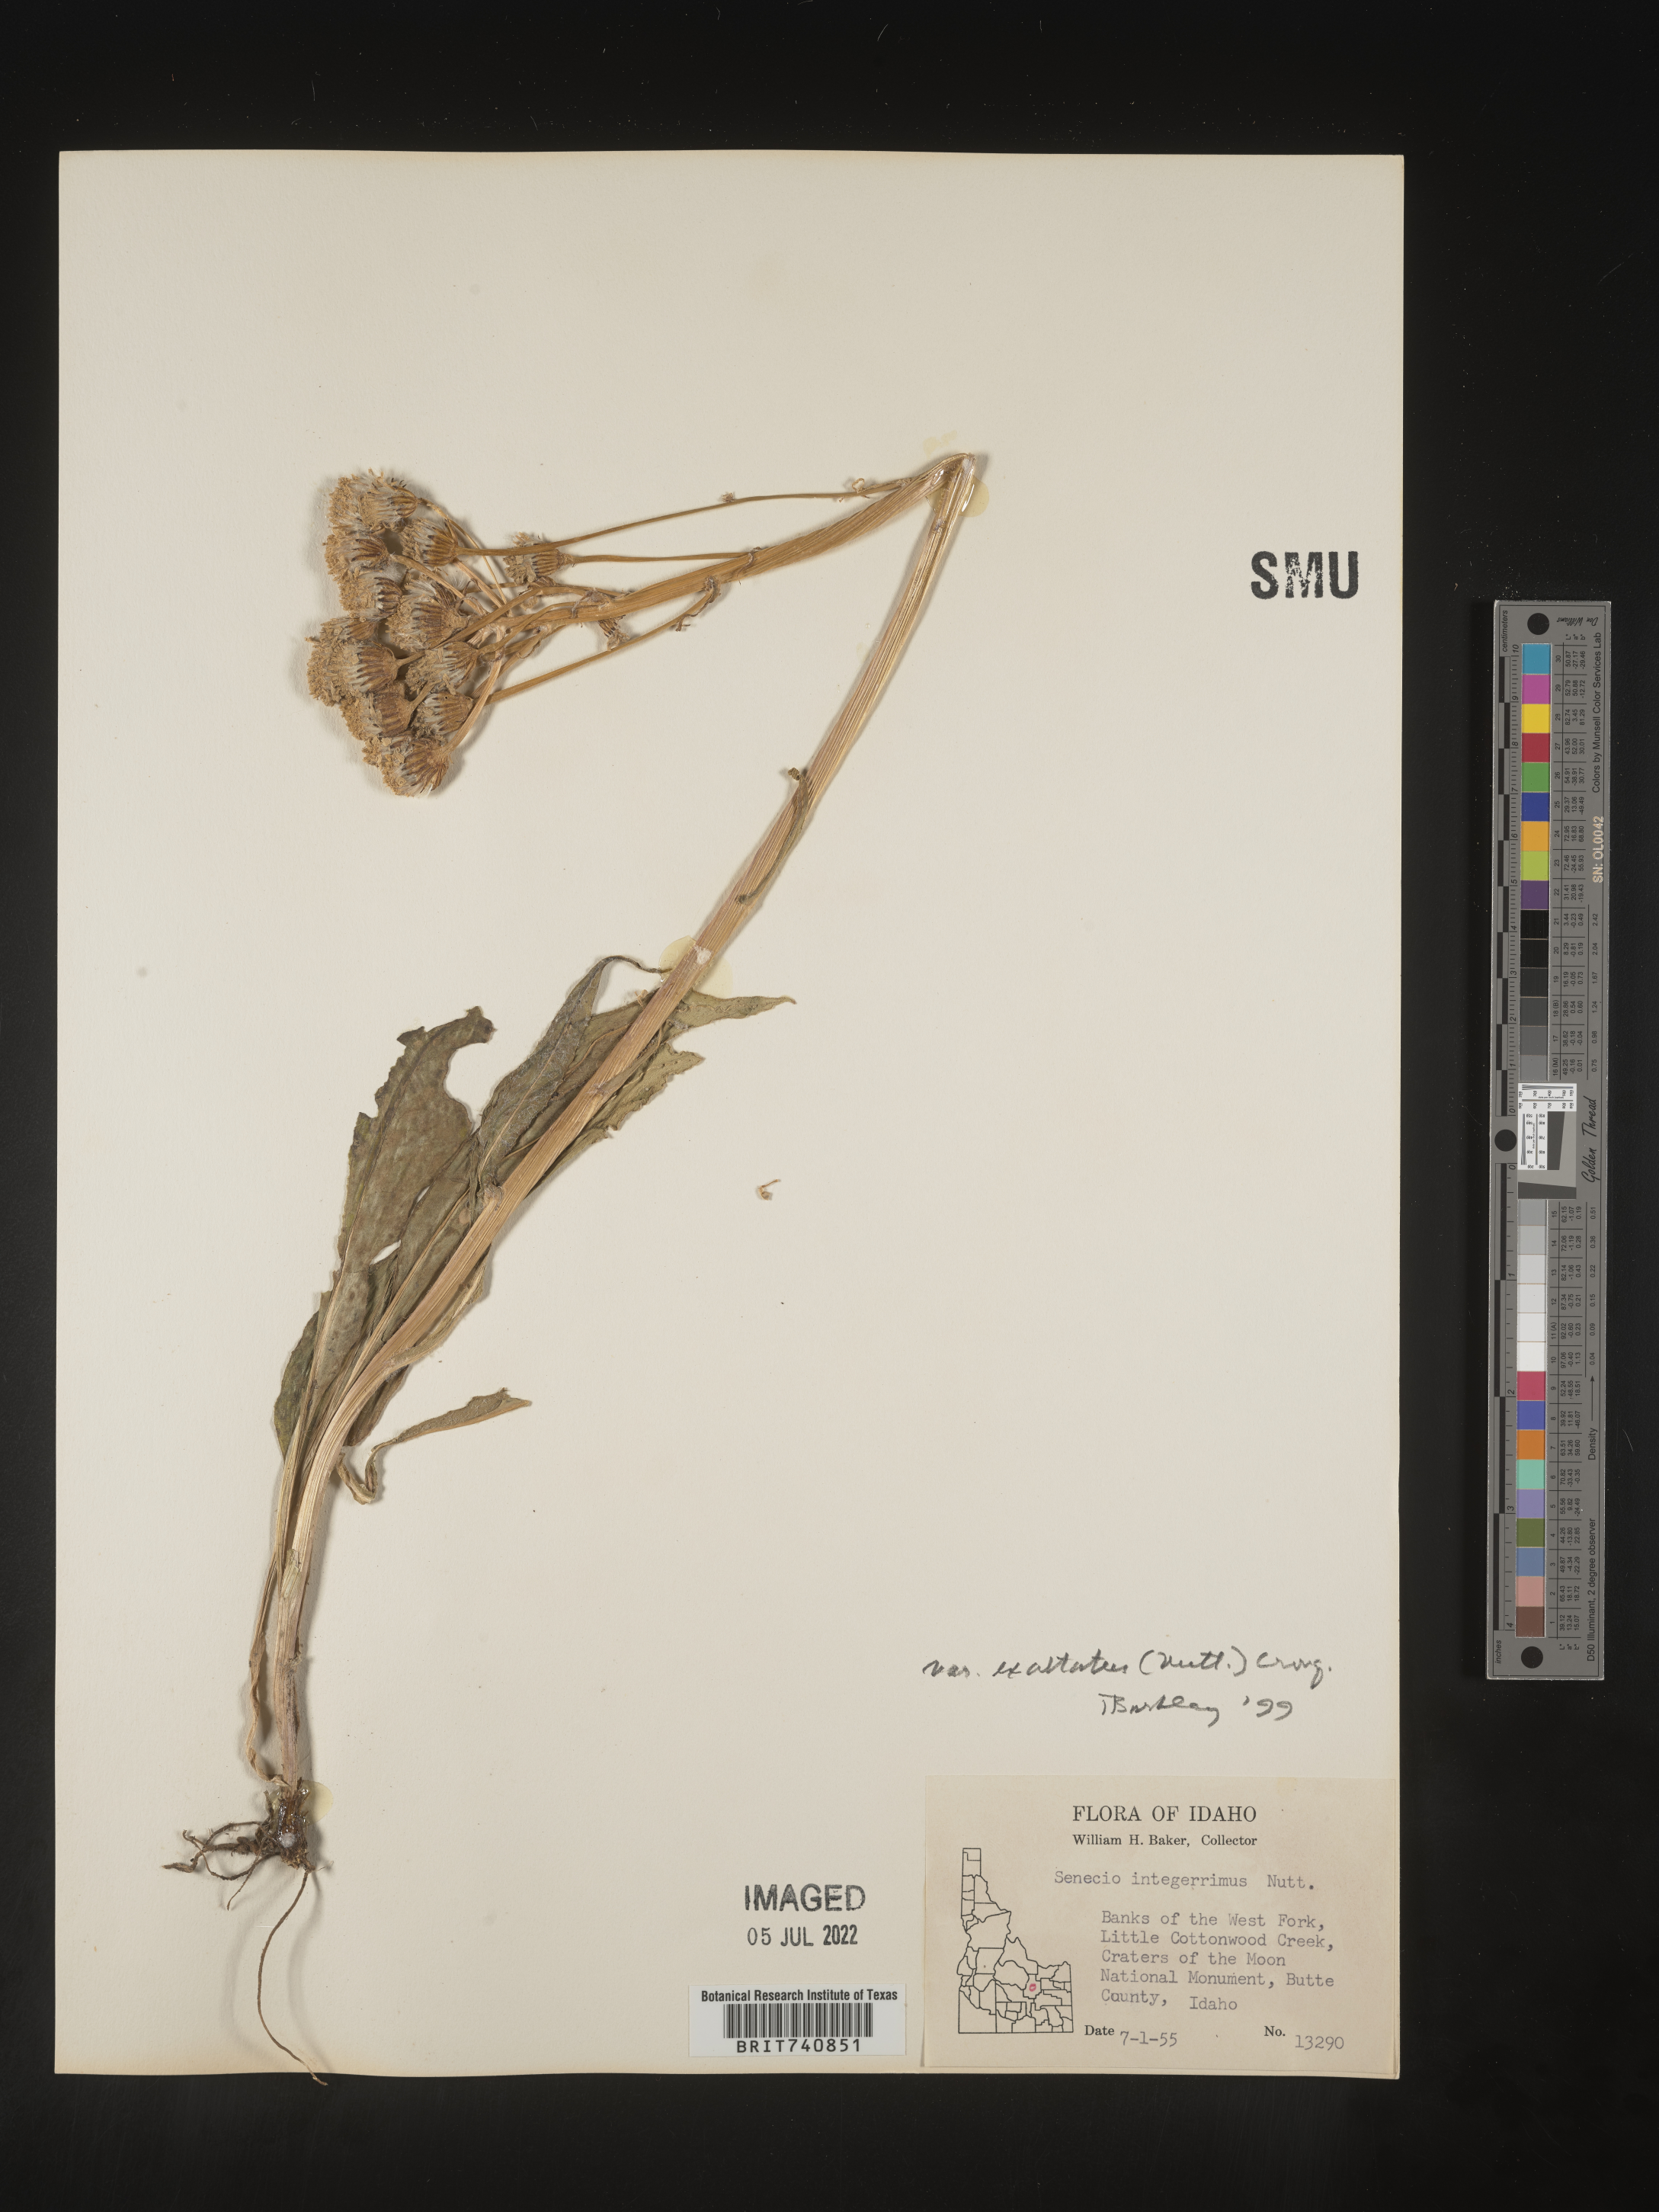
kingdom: Plantae
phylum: Tracheophyta
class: Magnoliopsida
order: Asterales
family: Asteraceae
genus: Senecio
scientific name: Senecio integerrimus
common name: Gaugeplant
